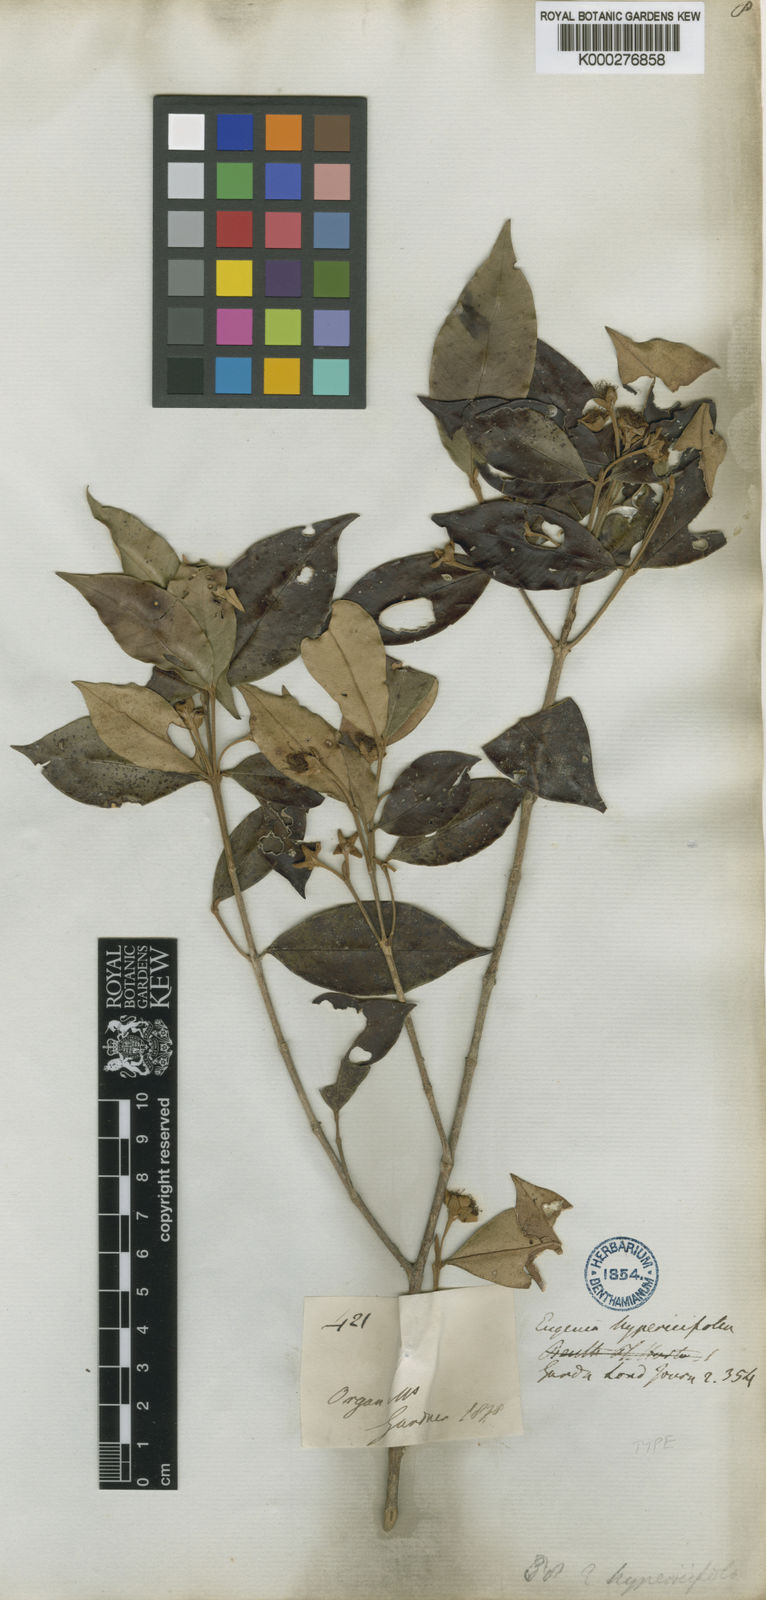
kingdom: Plantae
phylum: Tracheophyta
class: Magnoliopsida
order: Myrtales
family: Myrtaceae
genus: Myrceugenia
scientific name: Myrceugenia myrcioides
